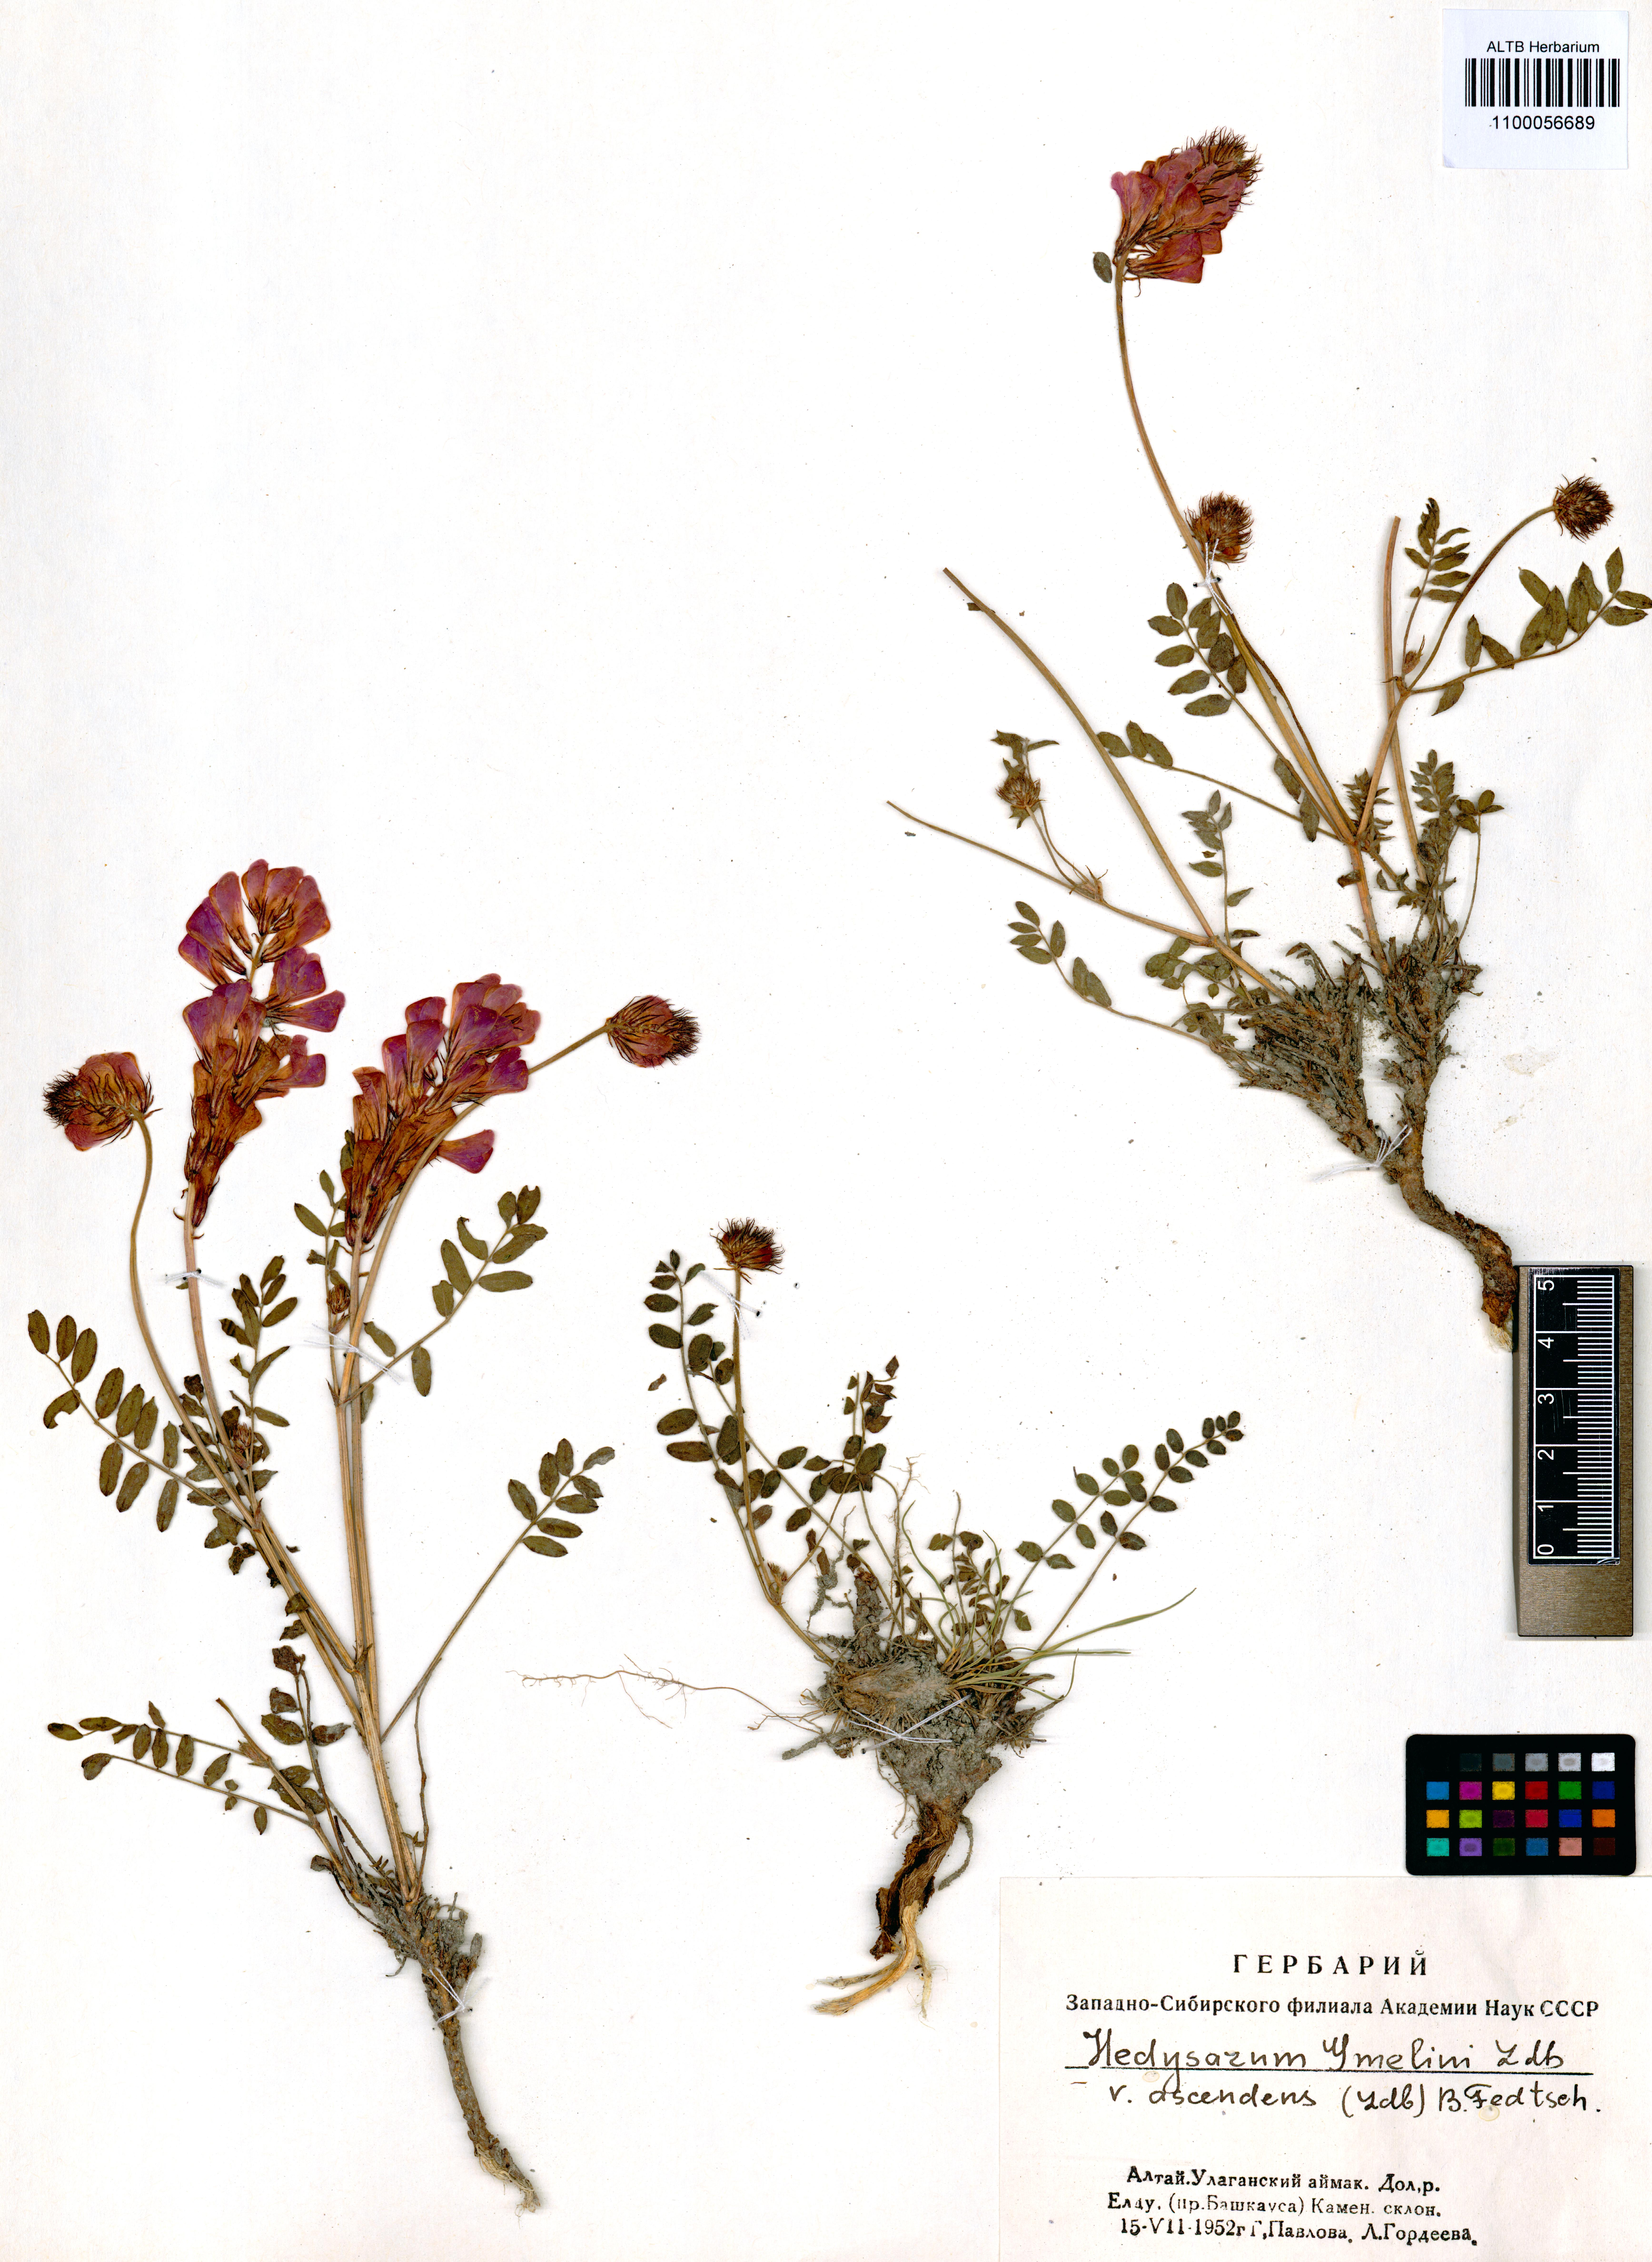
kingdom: Plantae
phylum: Tracheophyta
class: Magnoliopsida
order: Fabales
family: Fabaceae
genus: Hedysarum
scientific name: Hedysarum gmelinii
